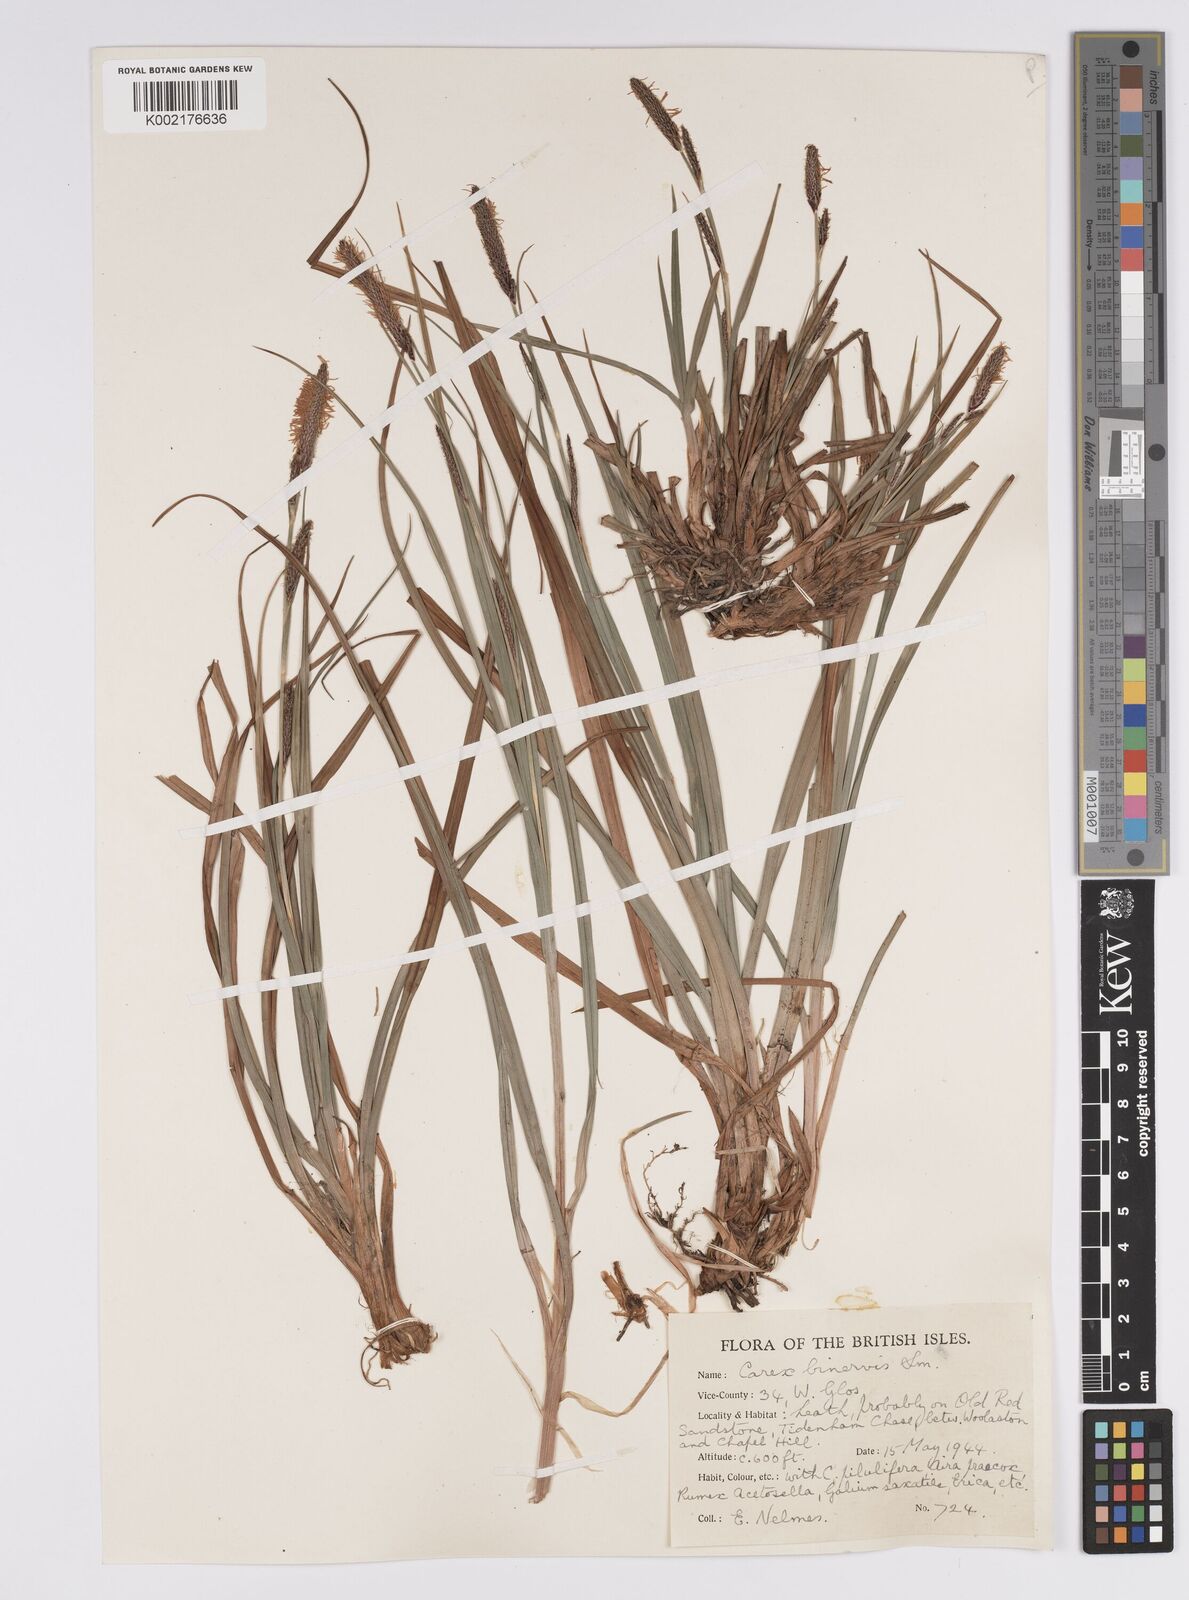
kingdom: Plantae
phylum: Tracheophyta
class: Liliopsida
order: Poales
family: Cyperaceae
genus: Carex
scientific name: Carex binervis
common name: Green-ribbed sedge
